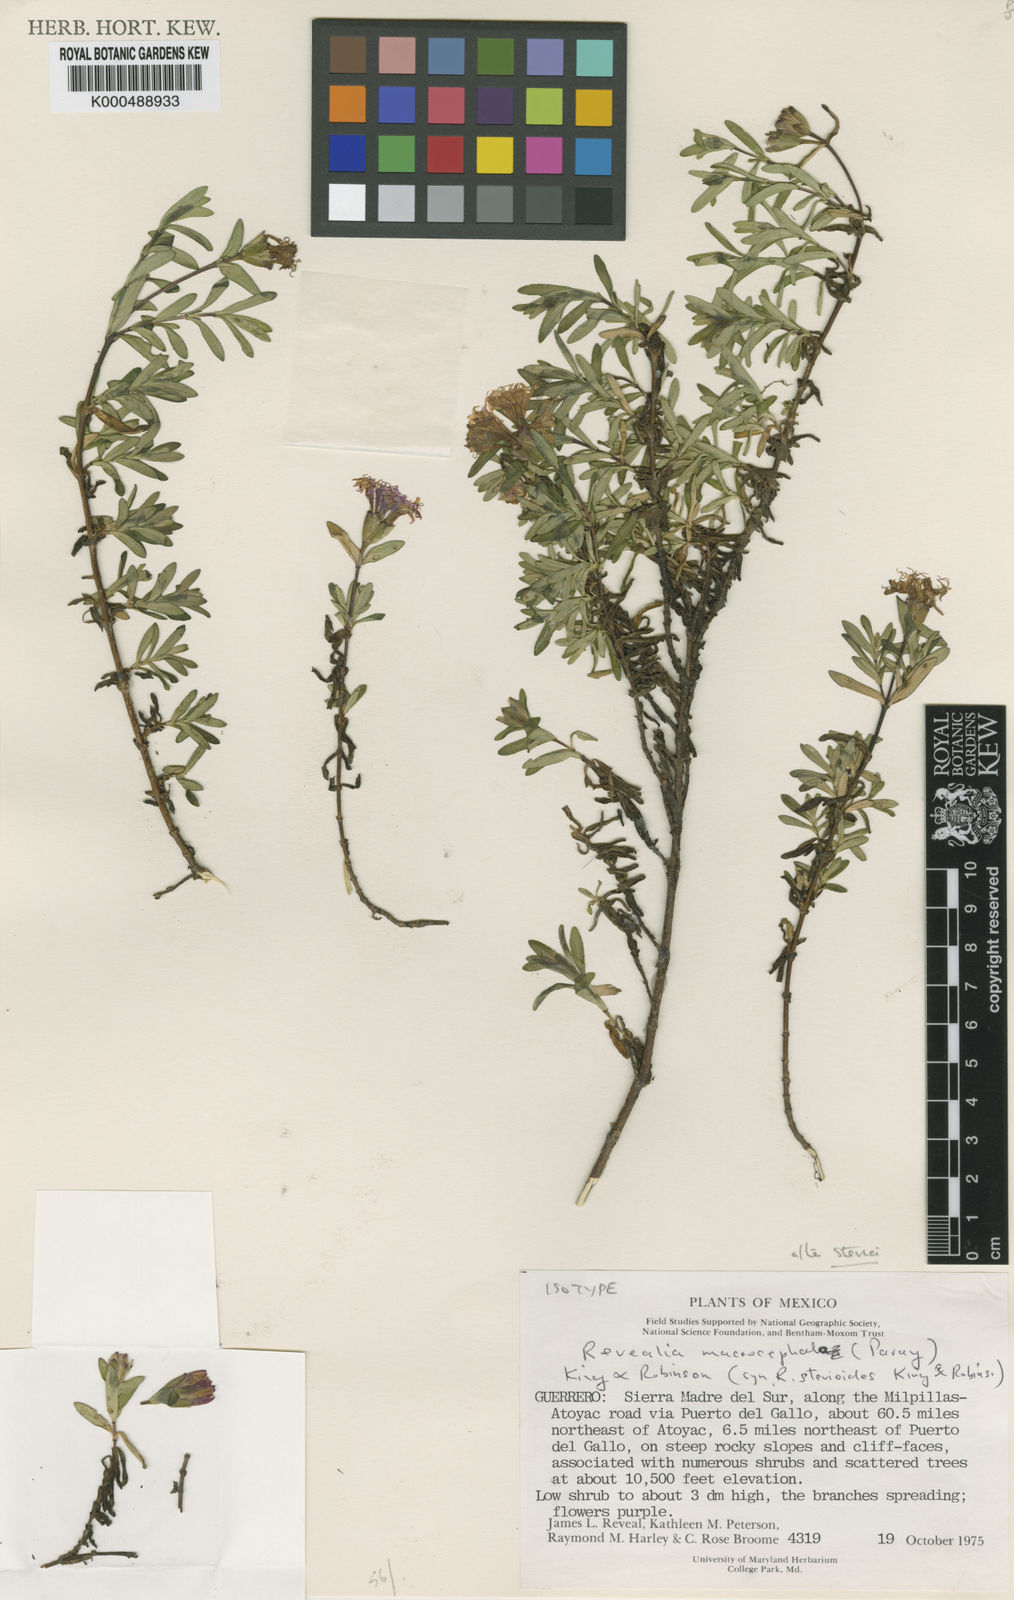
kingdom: Plantae
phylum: Tracheophyta
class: Magnoliopsida
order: Asterales
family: Asteraceae
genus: Carphochaete
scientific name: Carphochaete macrocephala
